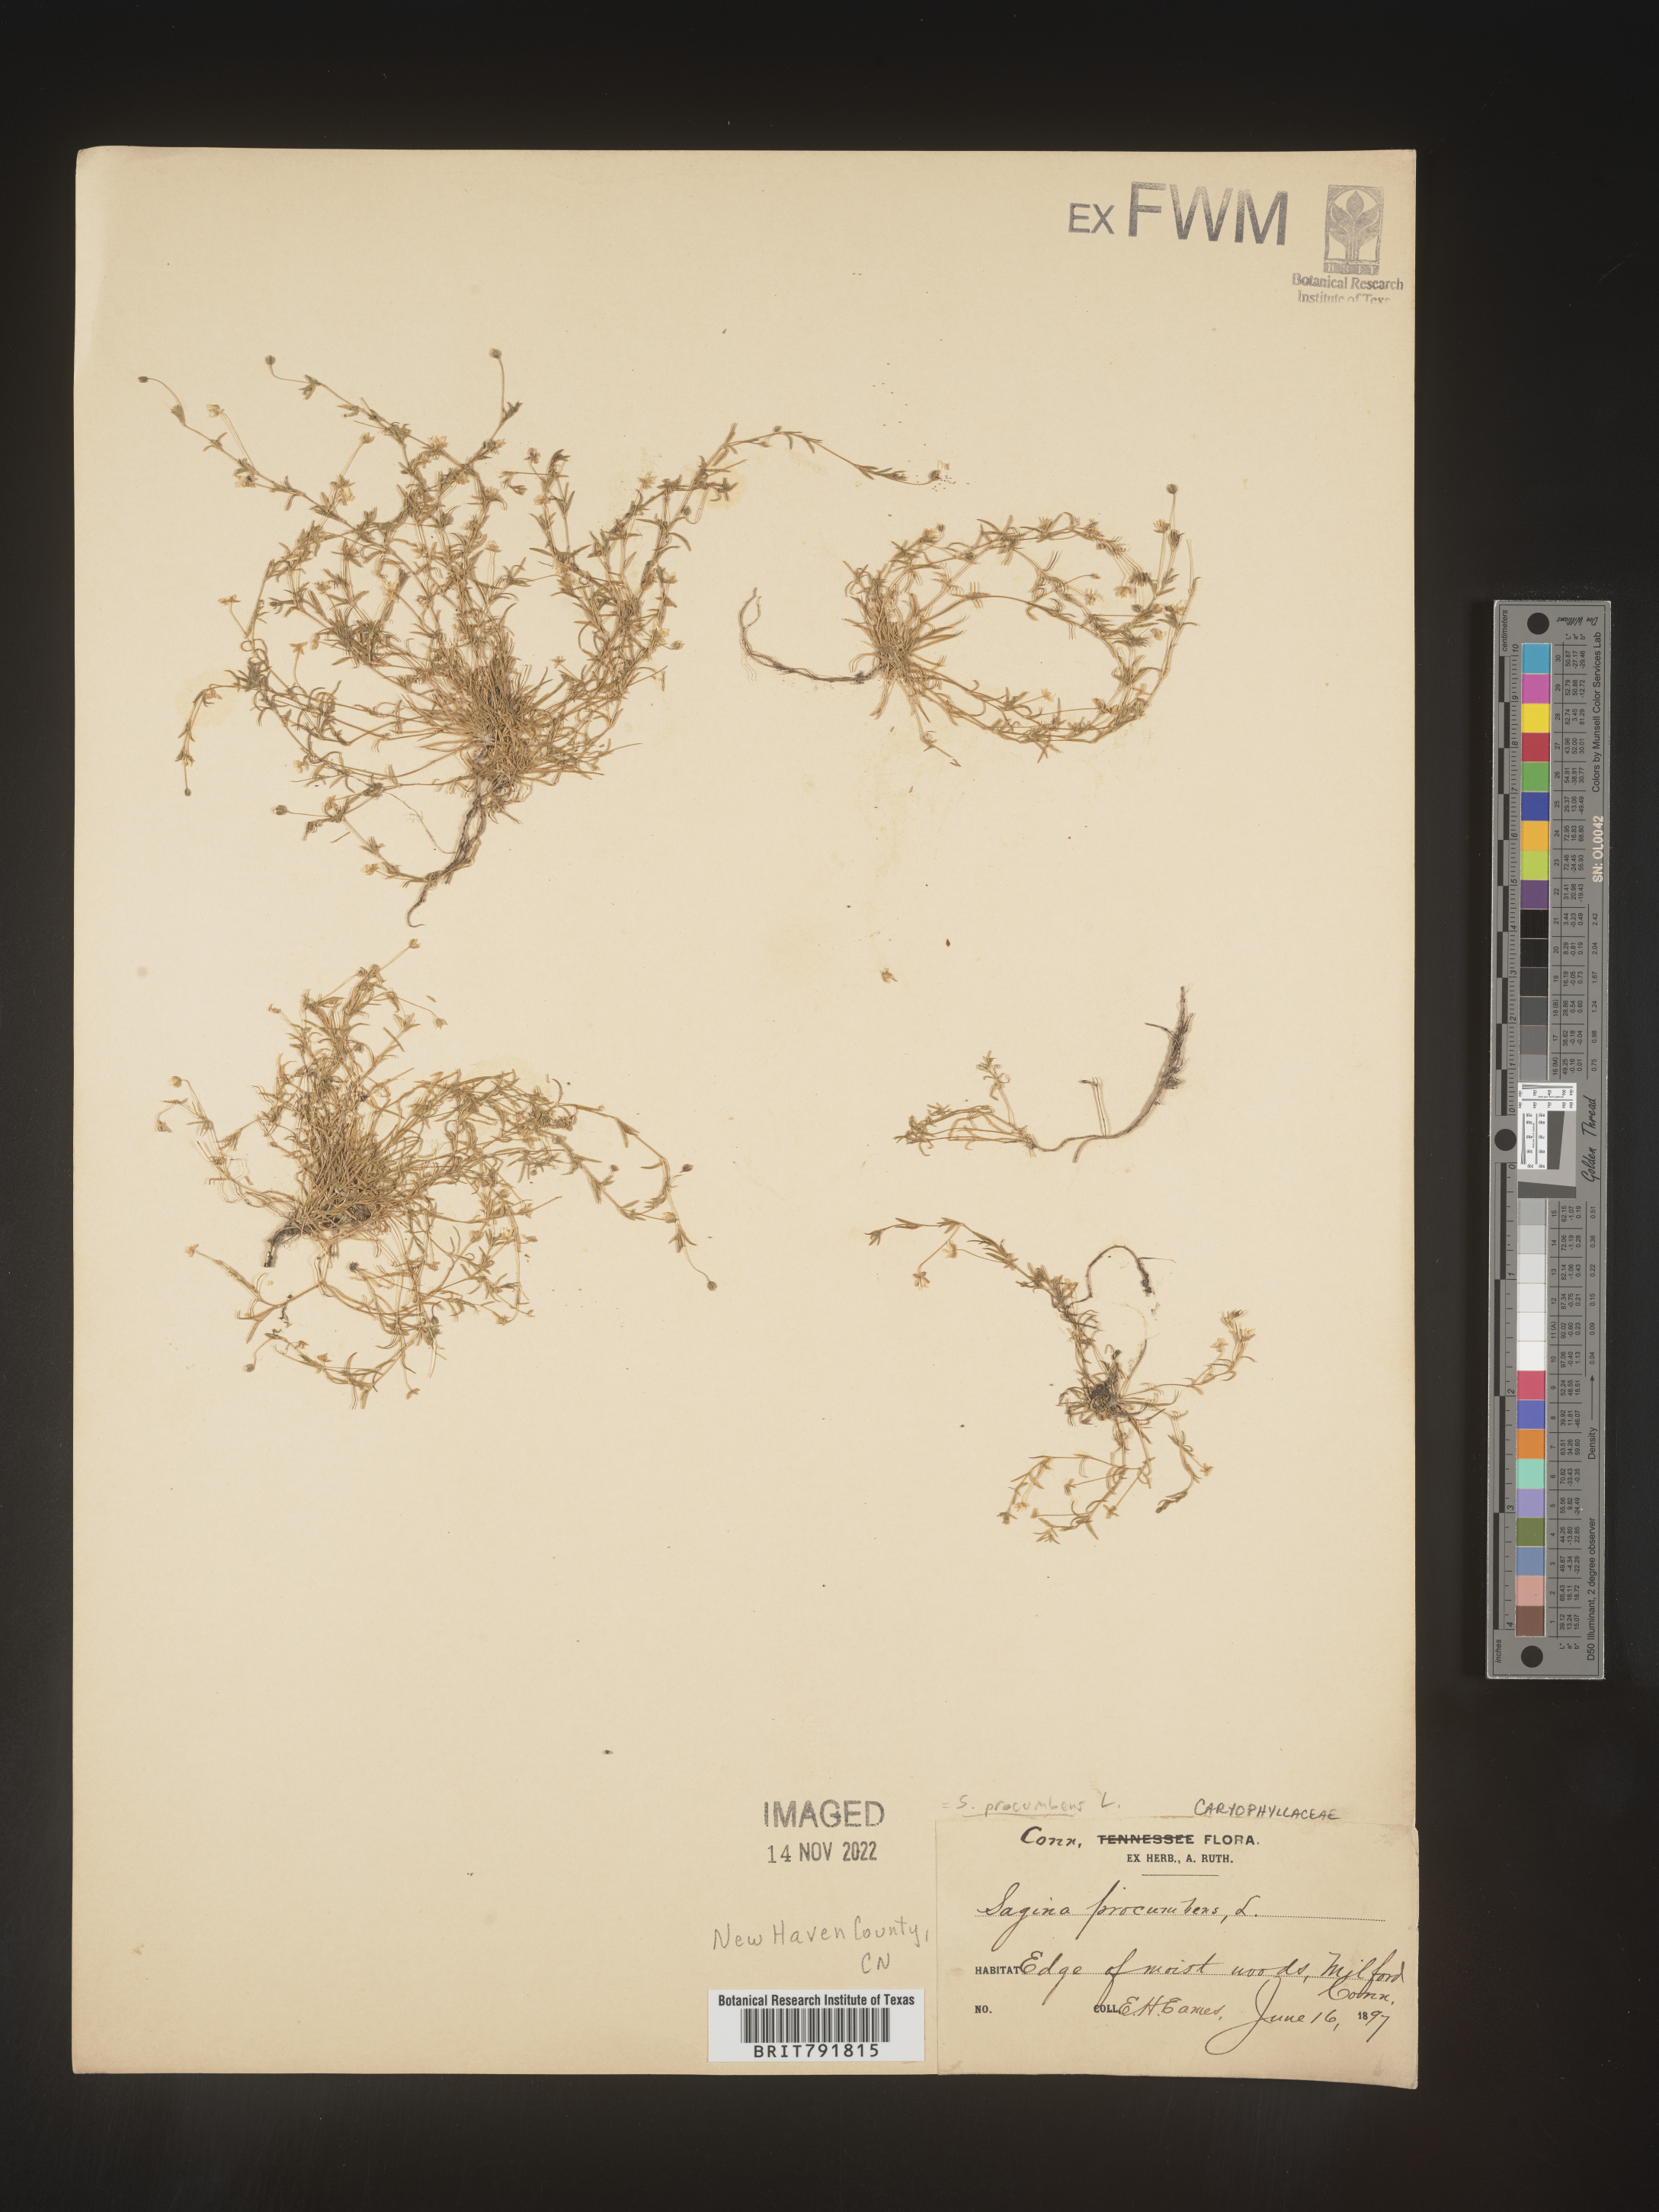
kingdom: Plantae
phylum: Tracheophyta
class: Magnoliopsida
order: Caryophyllales
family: Caryophyllaceae
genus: Sagina
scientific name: Sagina
